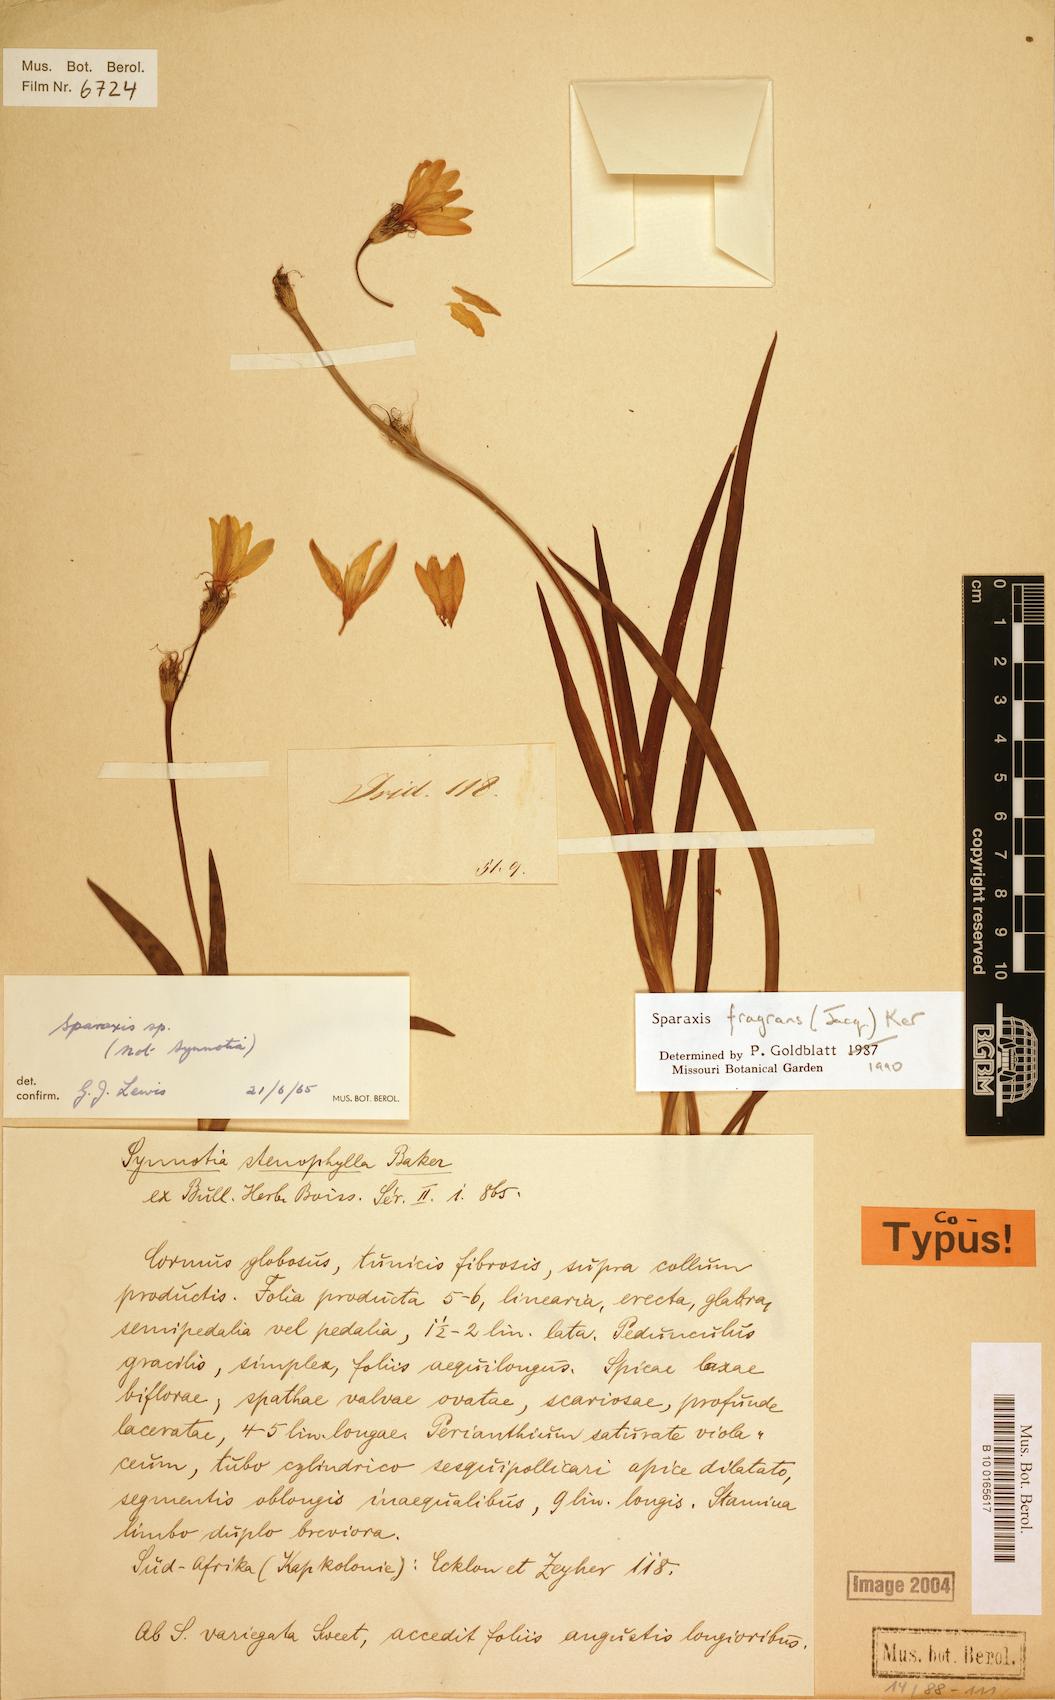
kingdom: Plantae
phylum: Tracheophyta
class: Liliopsida
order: Asparagales
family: Iridaceae
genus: Sparaxis
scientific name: Sparaxis fragrans
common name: Fragrant wandflower
